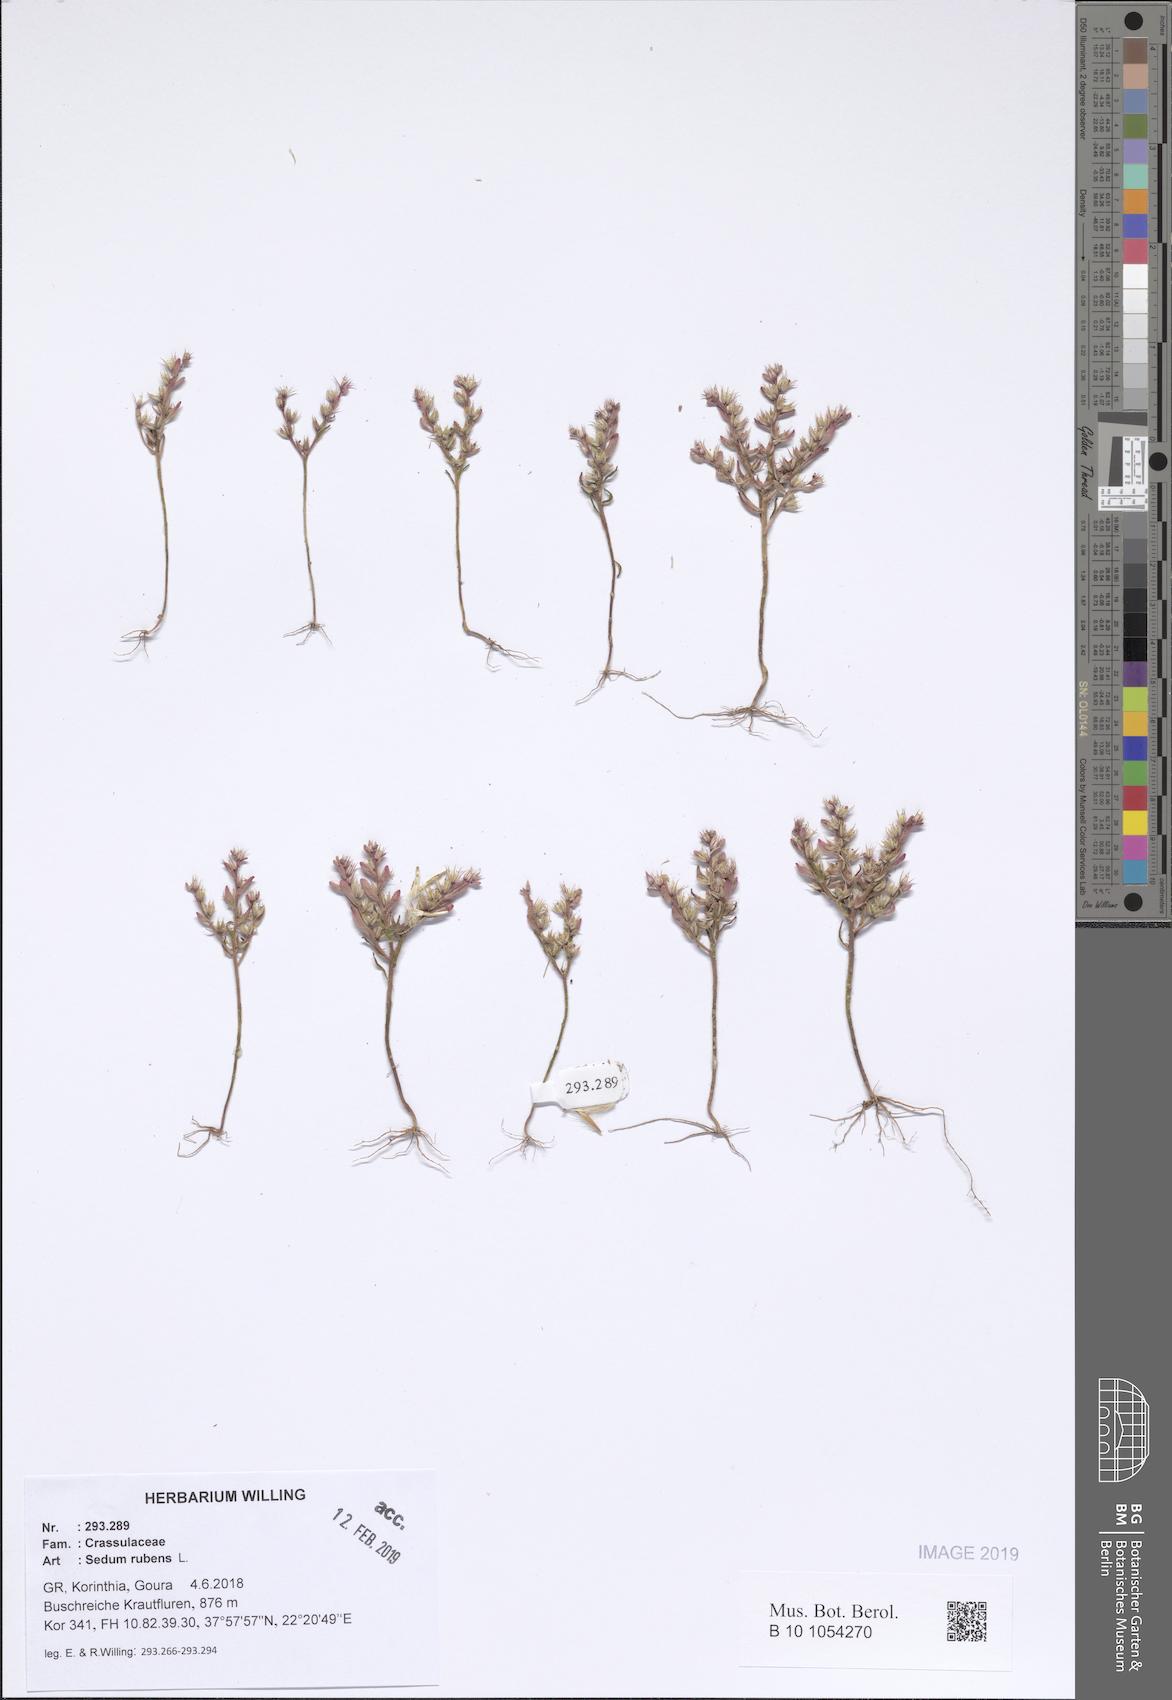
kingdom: Plantae
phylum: Tracheophyta
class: Magnoliopsida
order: Saxifragales
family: Crassulaceae
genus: Sedum
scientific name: Sedum rubens
